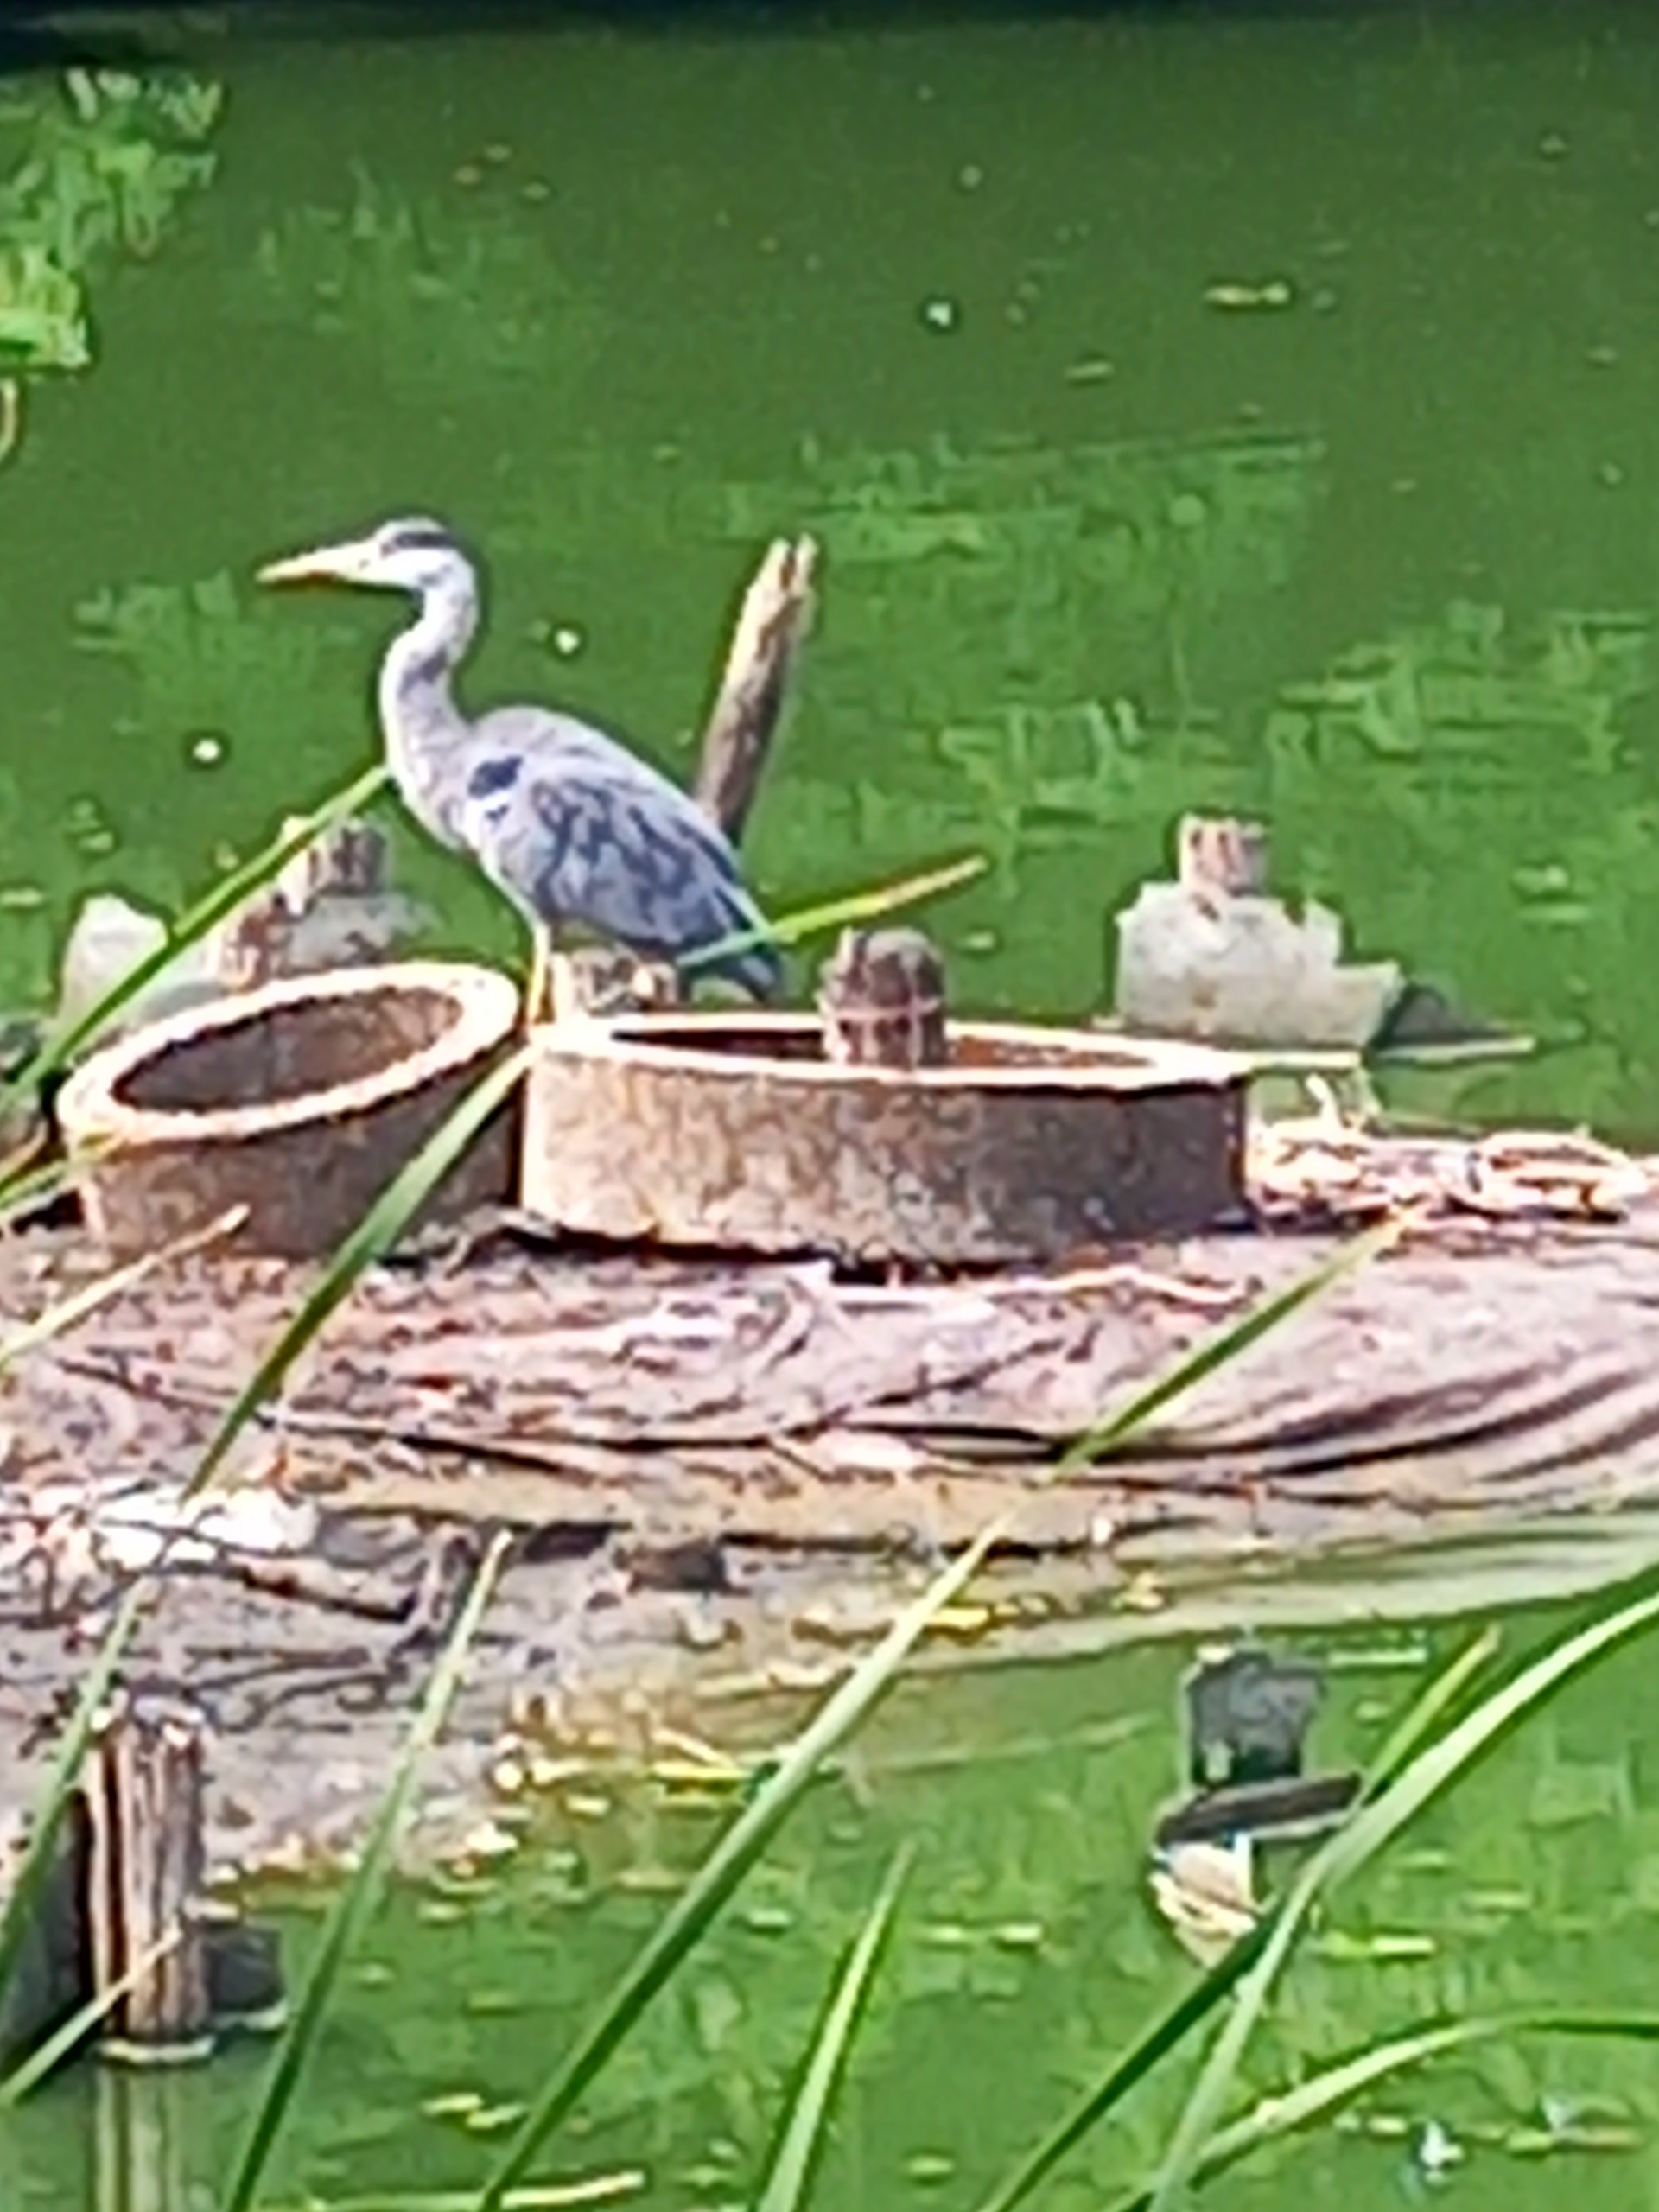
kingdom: Animalia
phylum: Chordata
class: Aves
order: Pelecaniformes
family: Ardeidae
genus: Ardea
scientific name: Ardea cinerea
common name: Fiskehejre
